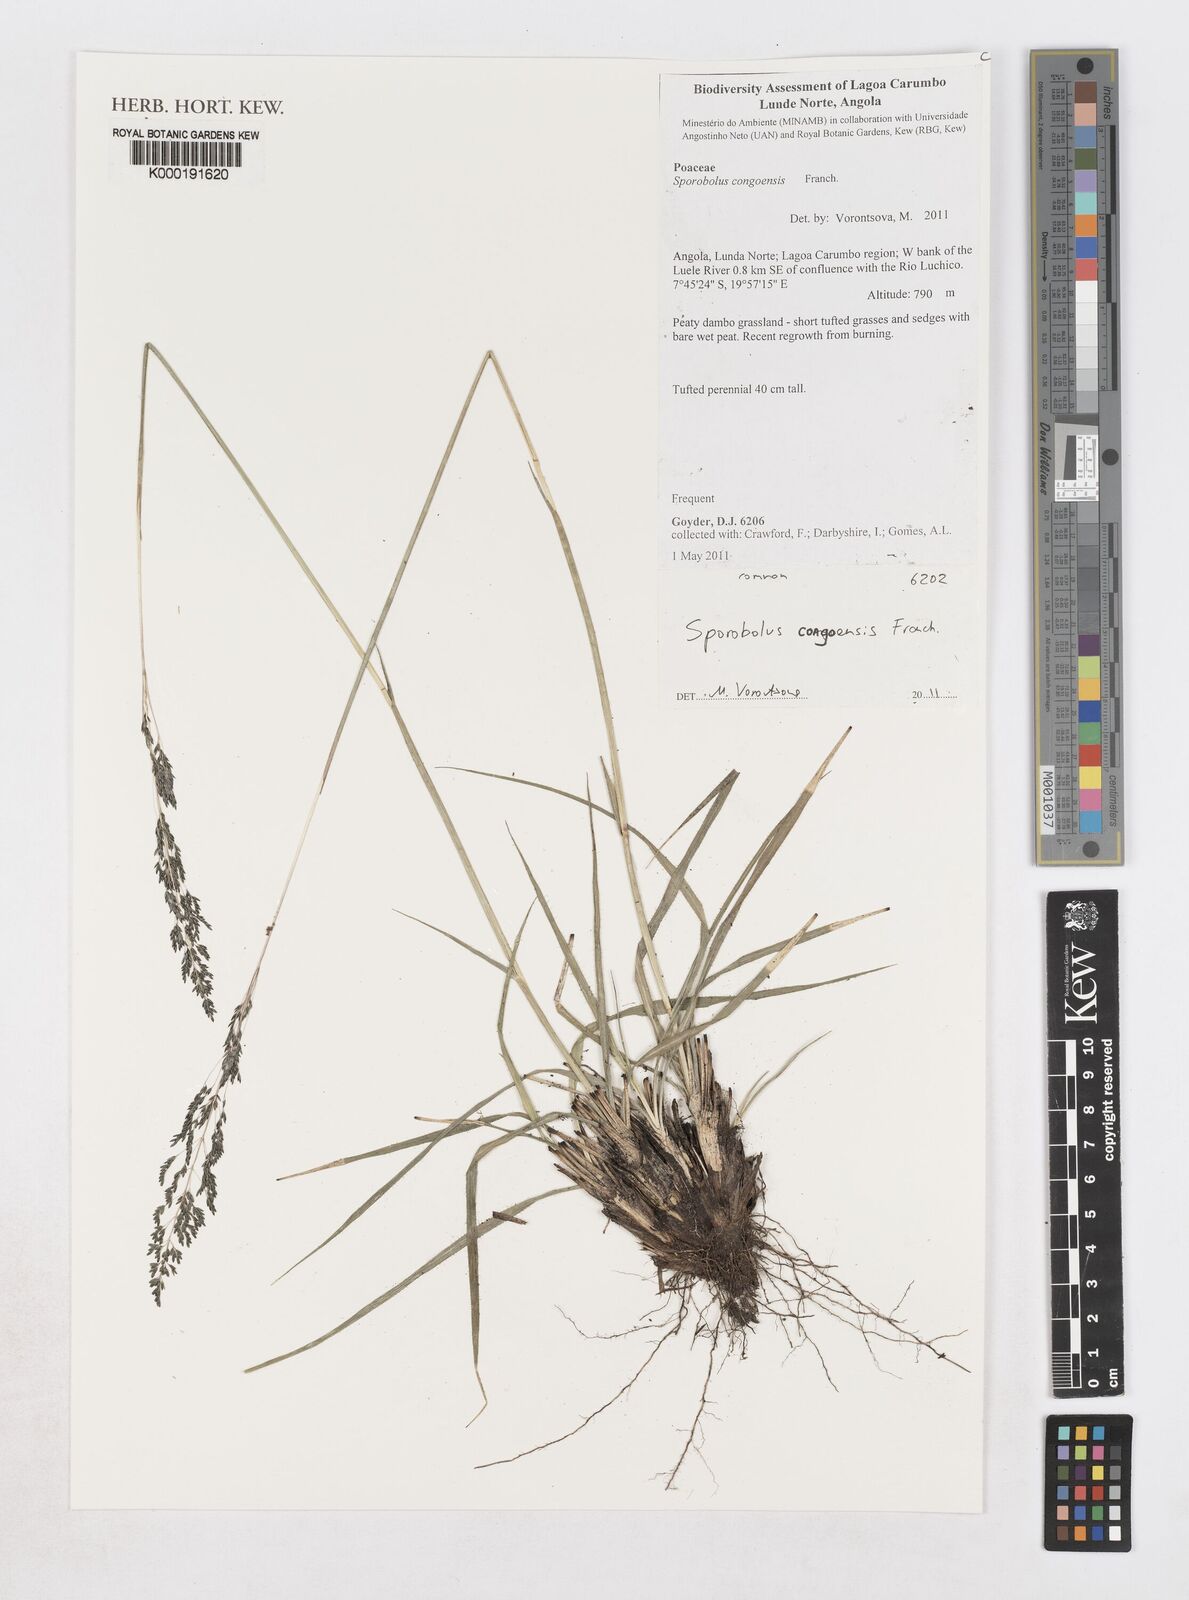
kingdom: Plantae
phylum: Tracheophyta
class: Liliopsida
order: Poales
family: Poaceae
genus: Sporobolus
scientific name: Sporobolus congoensis
